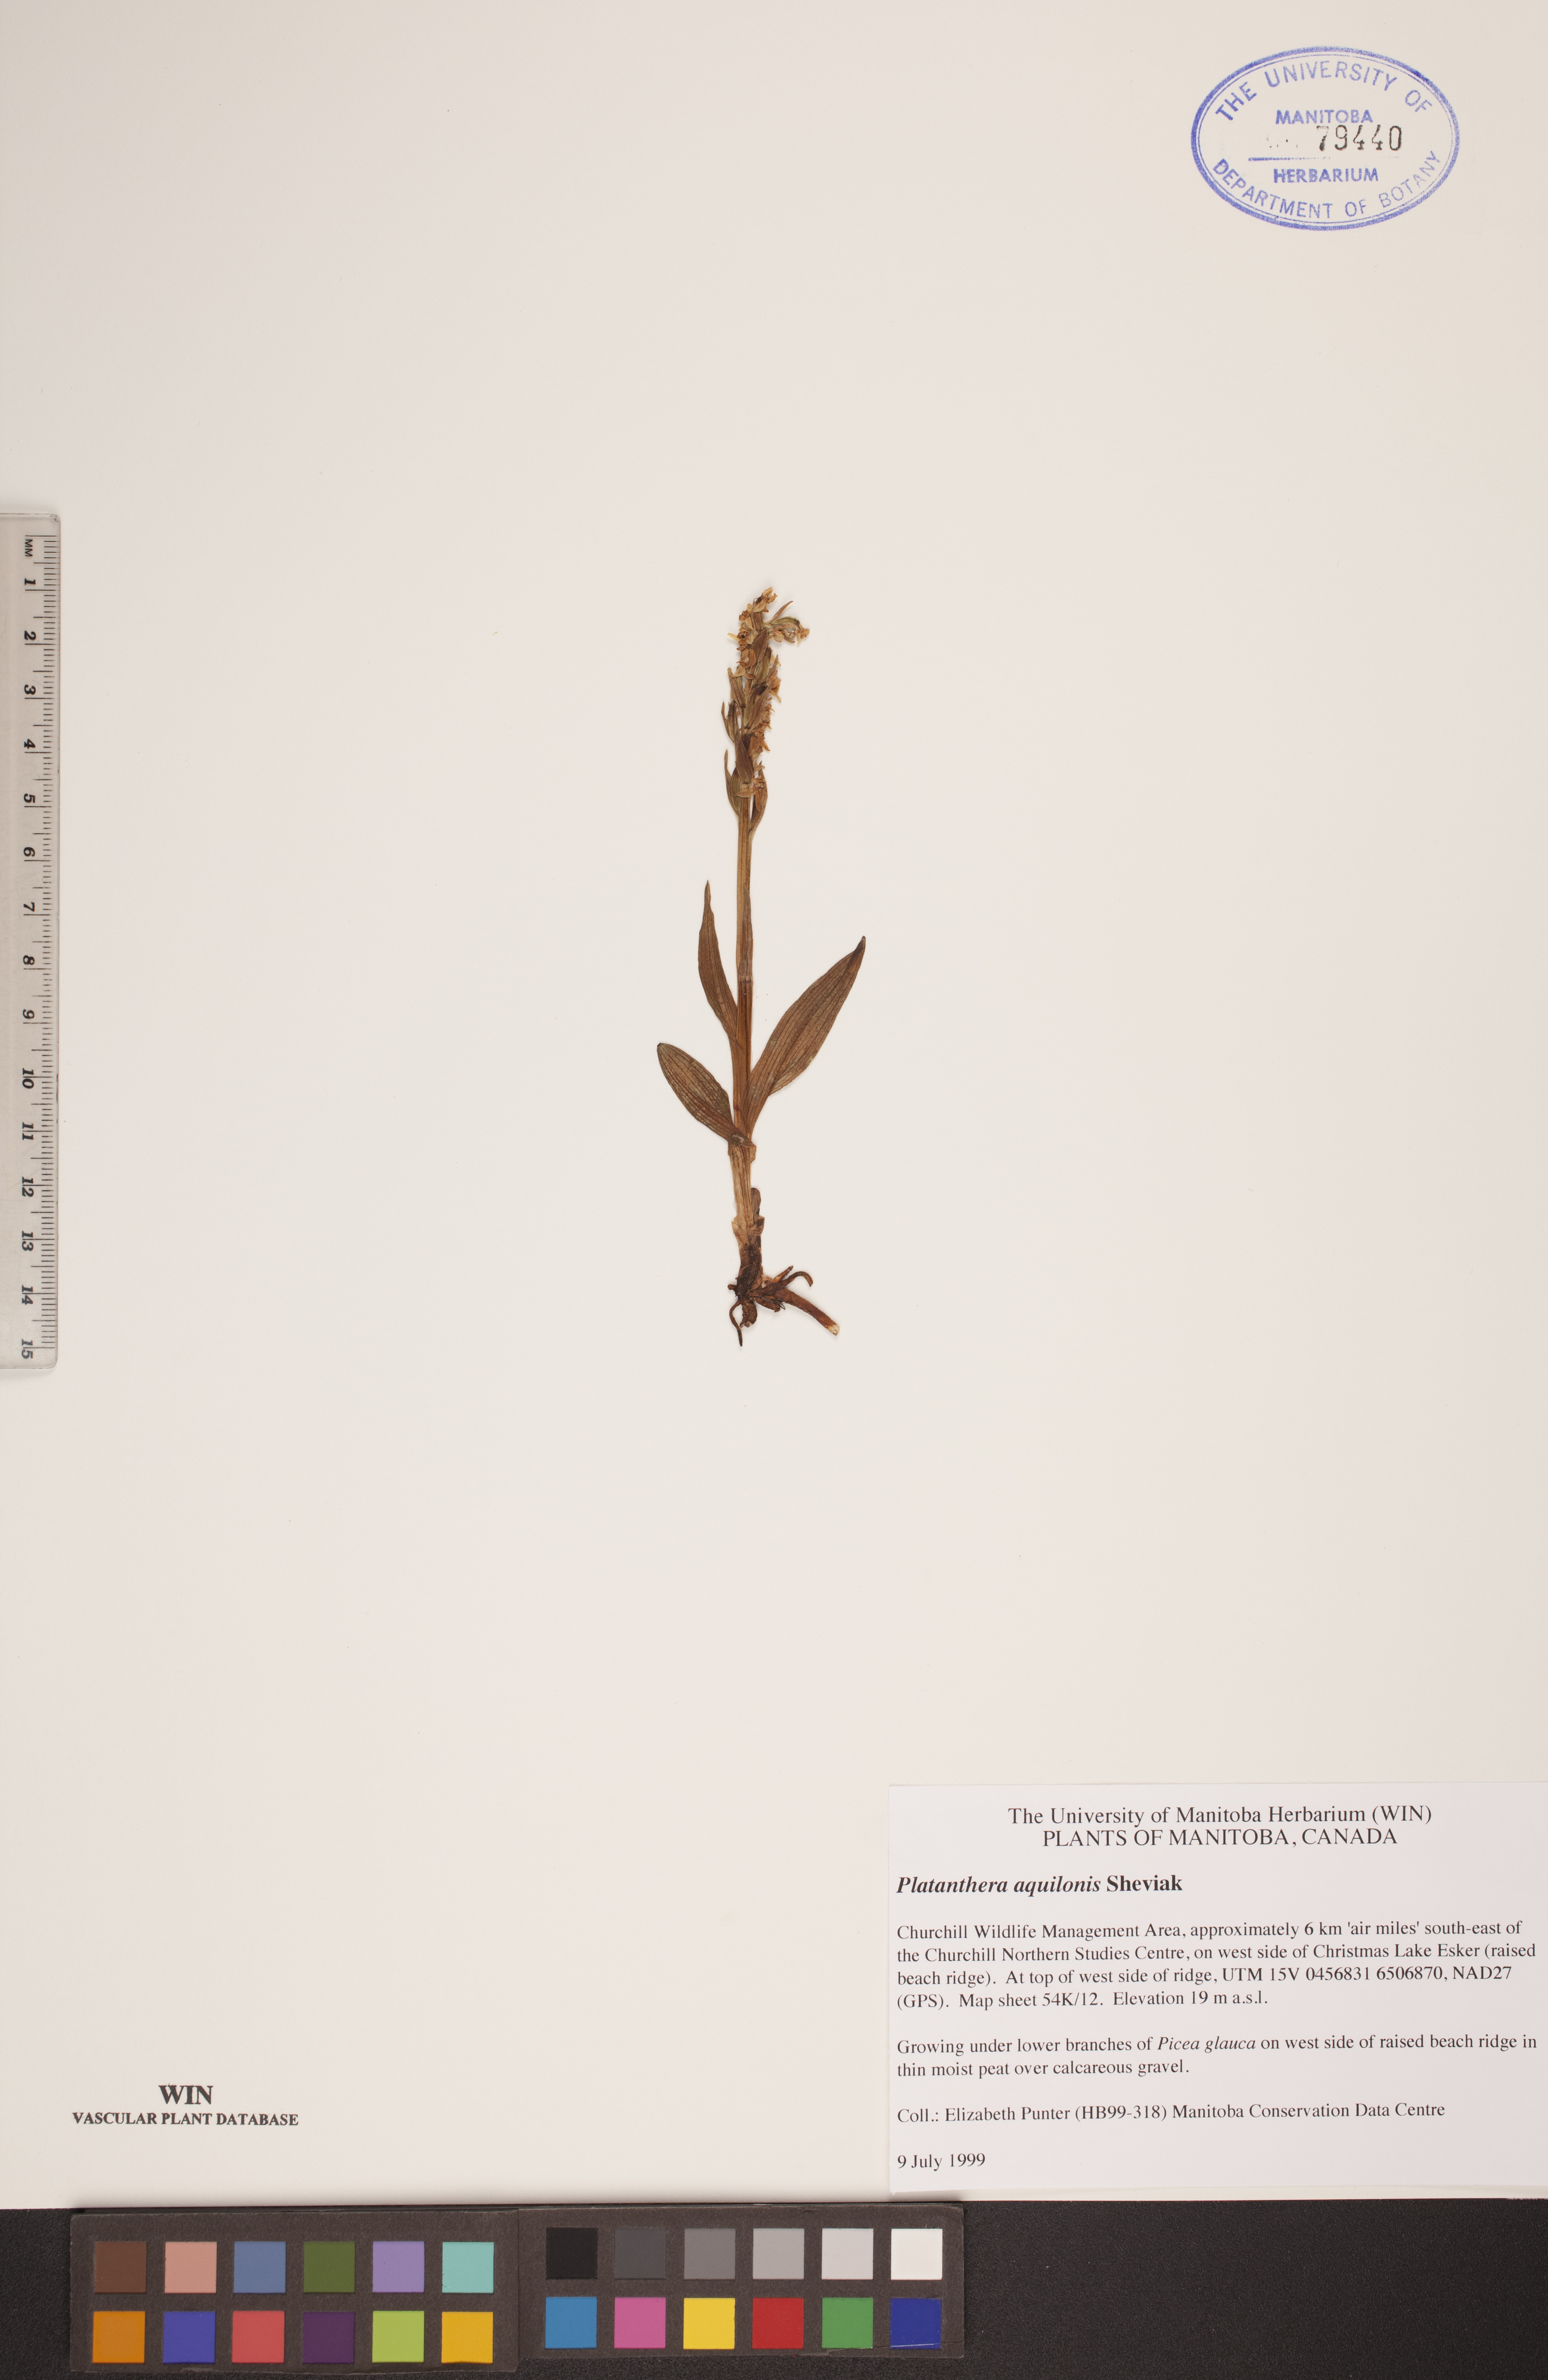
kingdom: Plantae
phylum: Tracheophyta
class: Liliopsida
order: Asparagales
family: Orchidaceae
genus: Platanthera
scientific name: Platanthera aquilonis
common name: Northern green orchid
